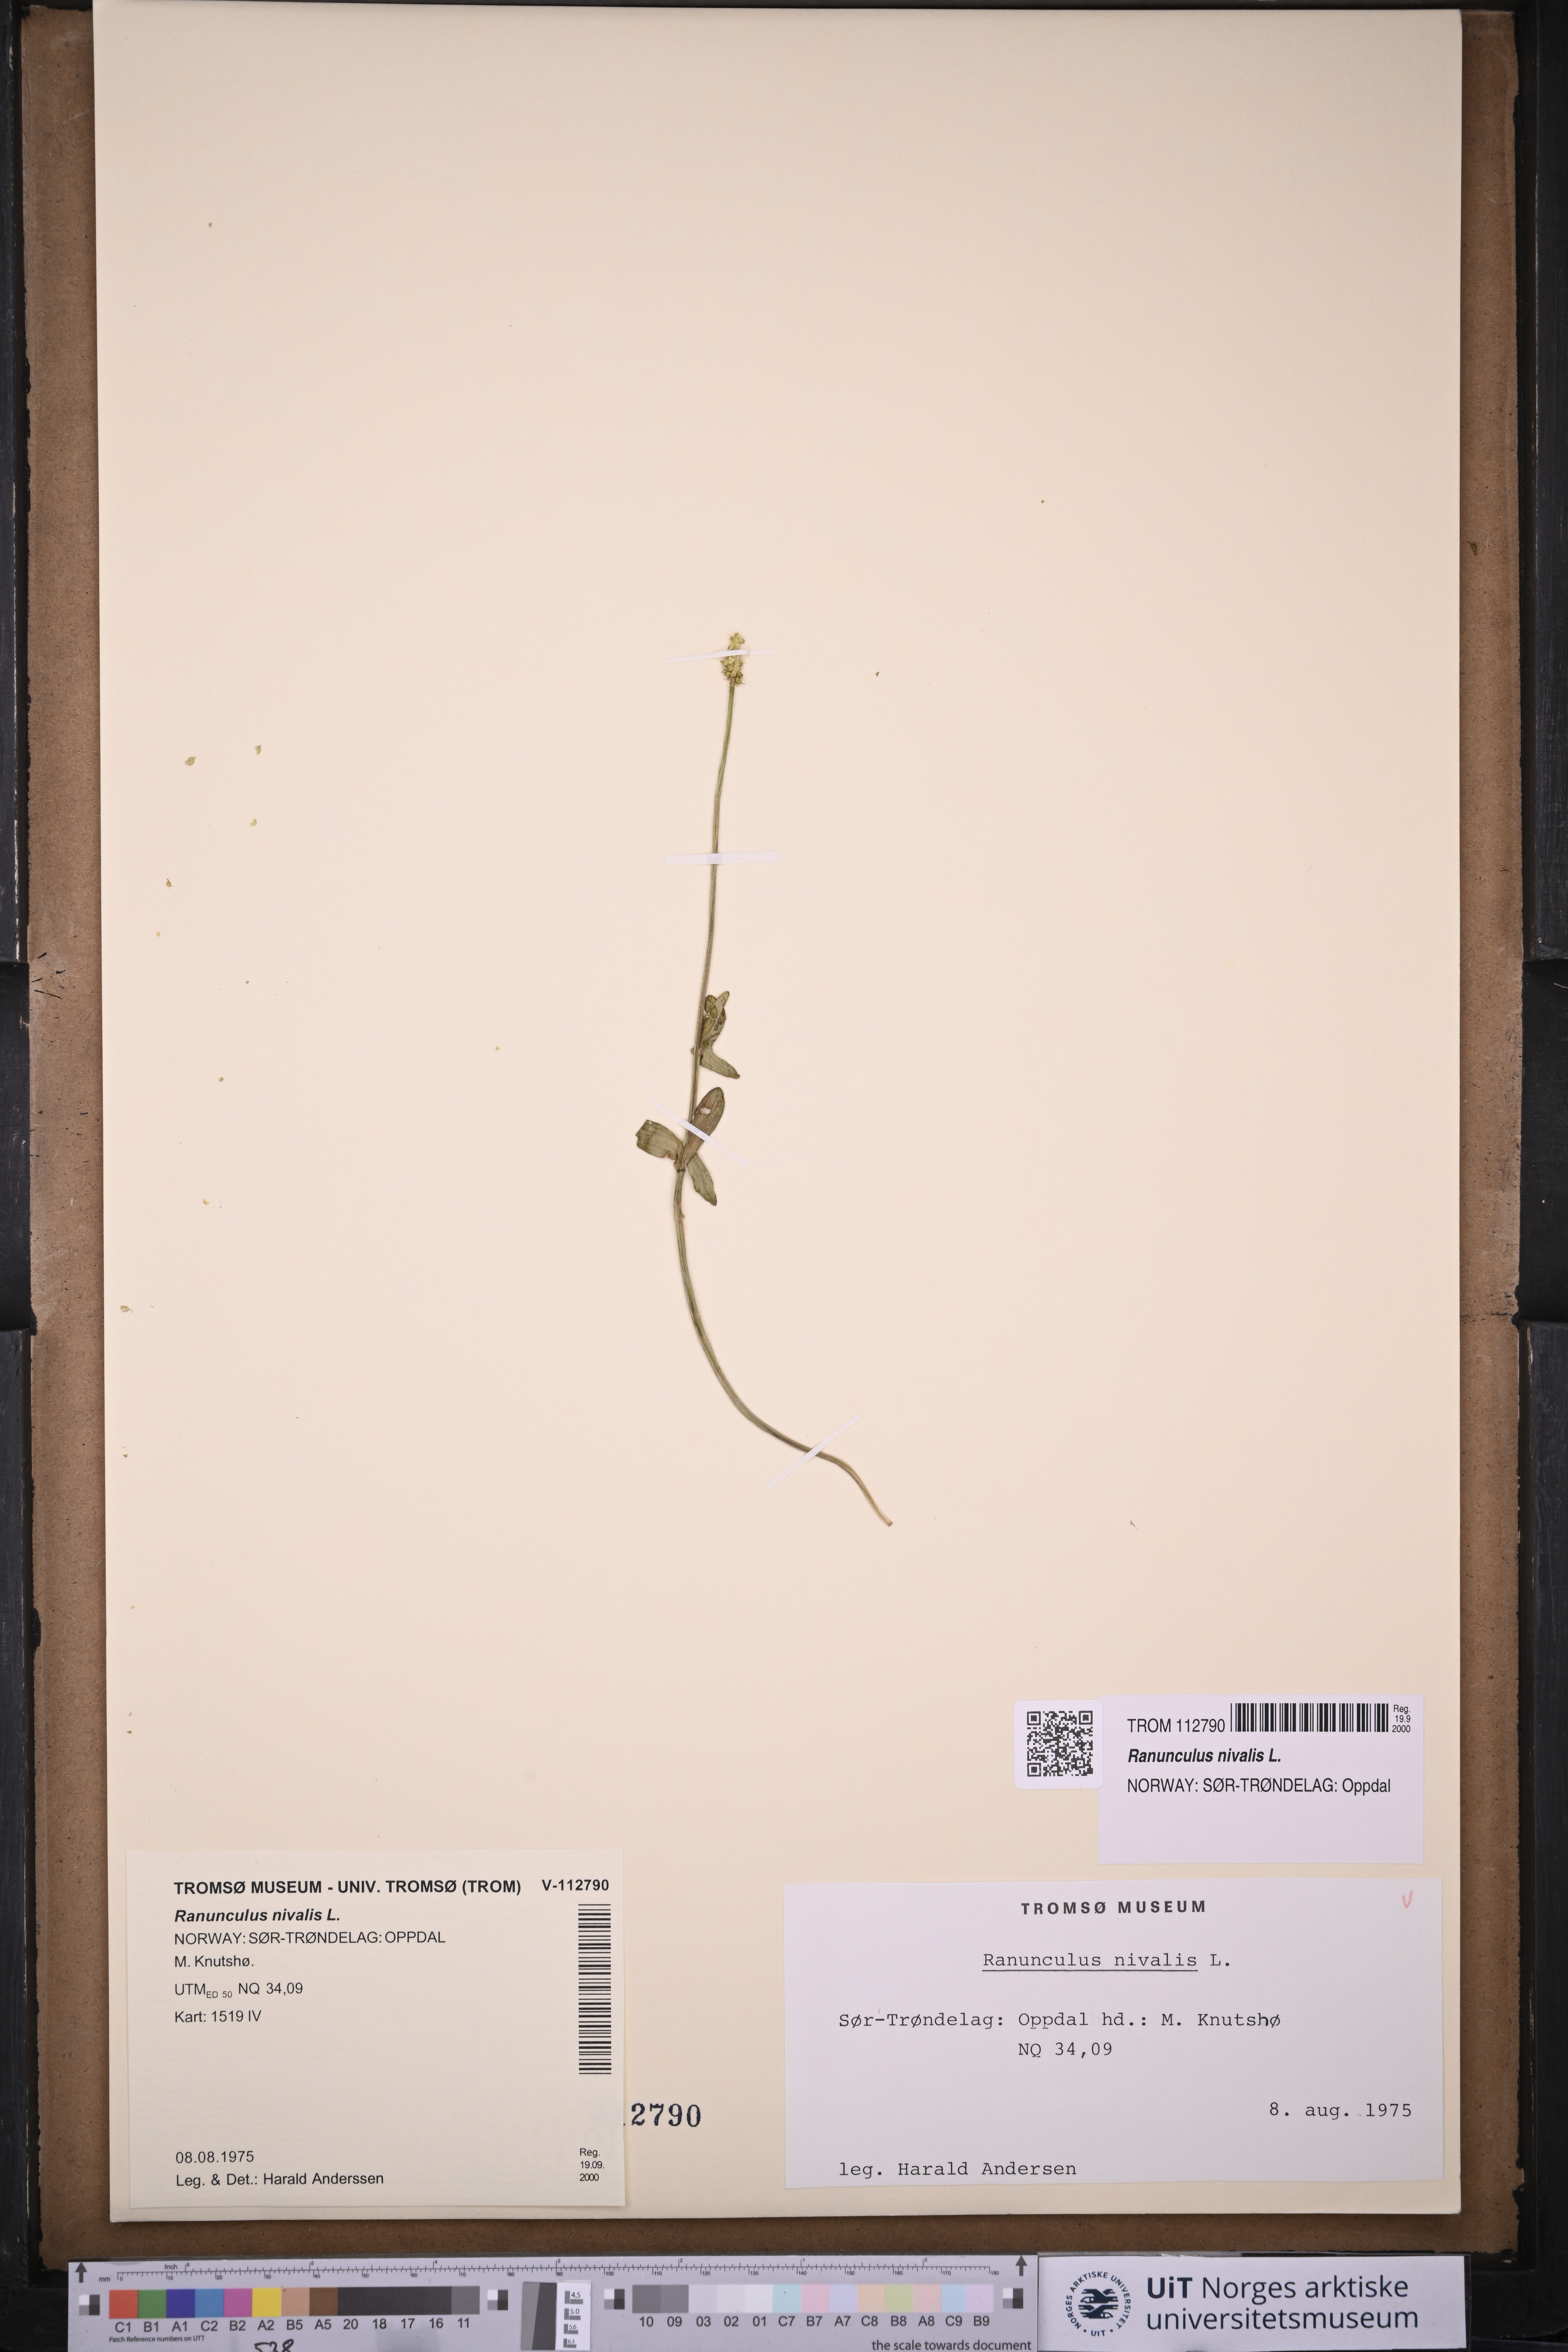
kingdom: Plantae
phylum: Tracheophyta
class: Magnoliopsida
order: Ranunculales
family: Ranunculaceae
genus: Ranunculus
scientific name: Ranunculus nivalis
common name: Snow buttercup
